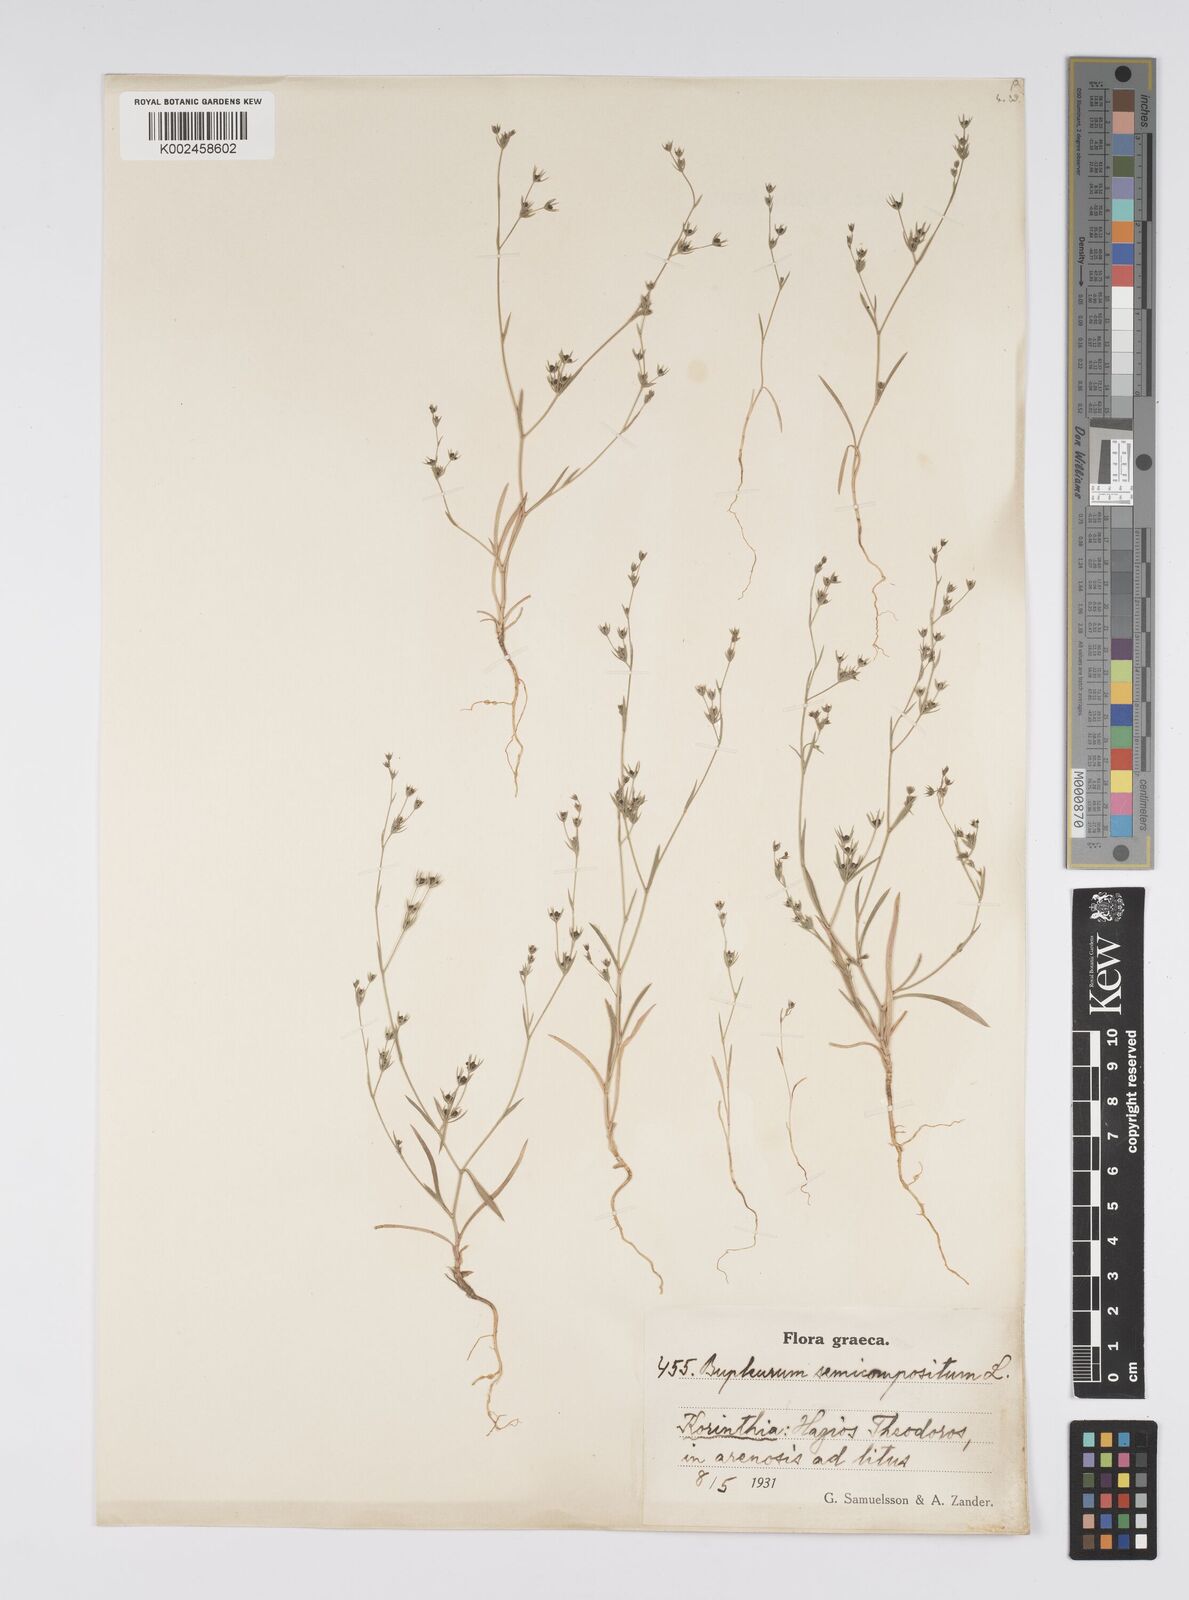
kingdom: Plantae
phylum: Tracheophyta
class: Magnoliopsida
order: Apiales
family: Apiaceae
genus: Bupleurum
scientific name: Bupleurum semicompositum
